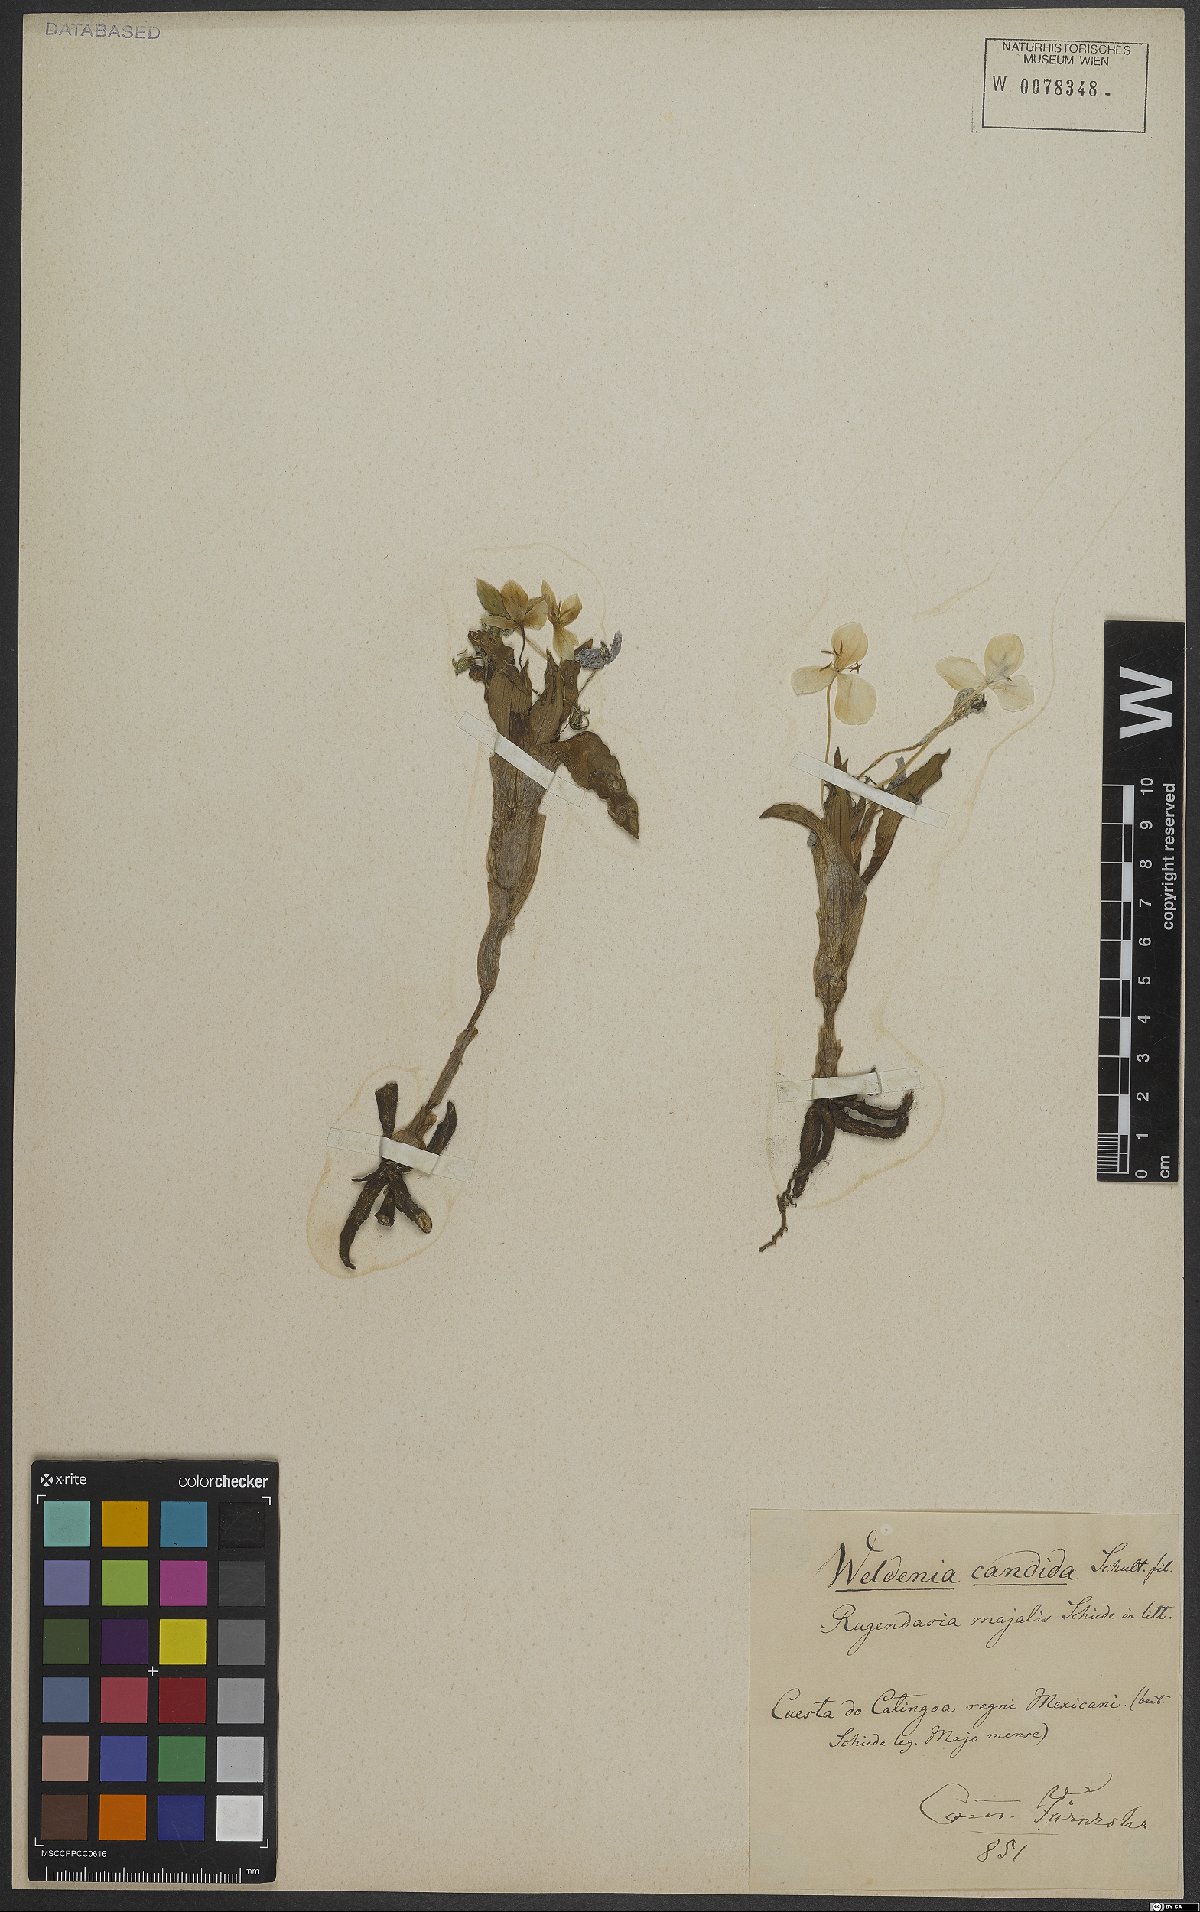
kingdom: Plantae
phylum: Tracheophyta
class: Liliopsida
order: Commelinales
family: Commelinaceae
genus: Weldenia
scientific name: Weldenia candida
